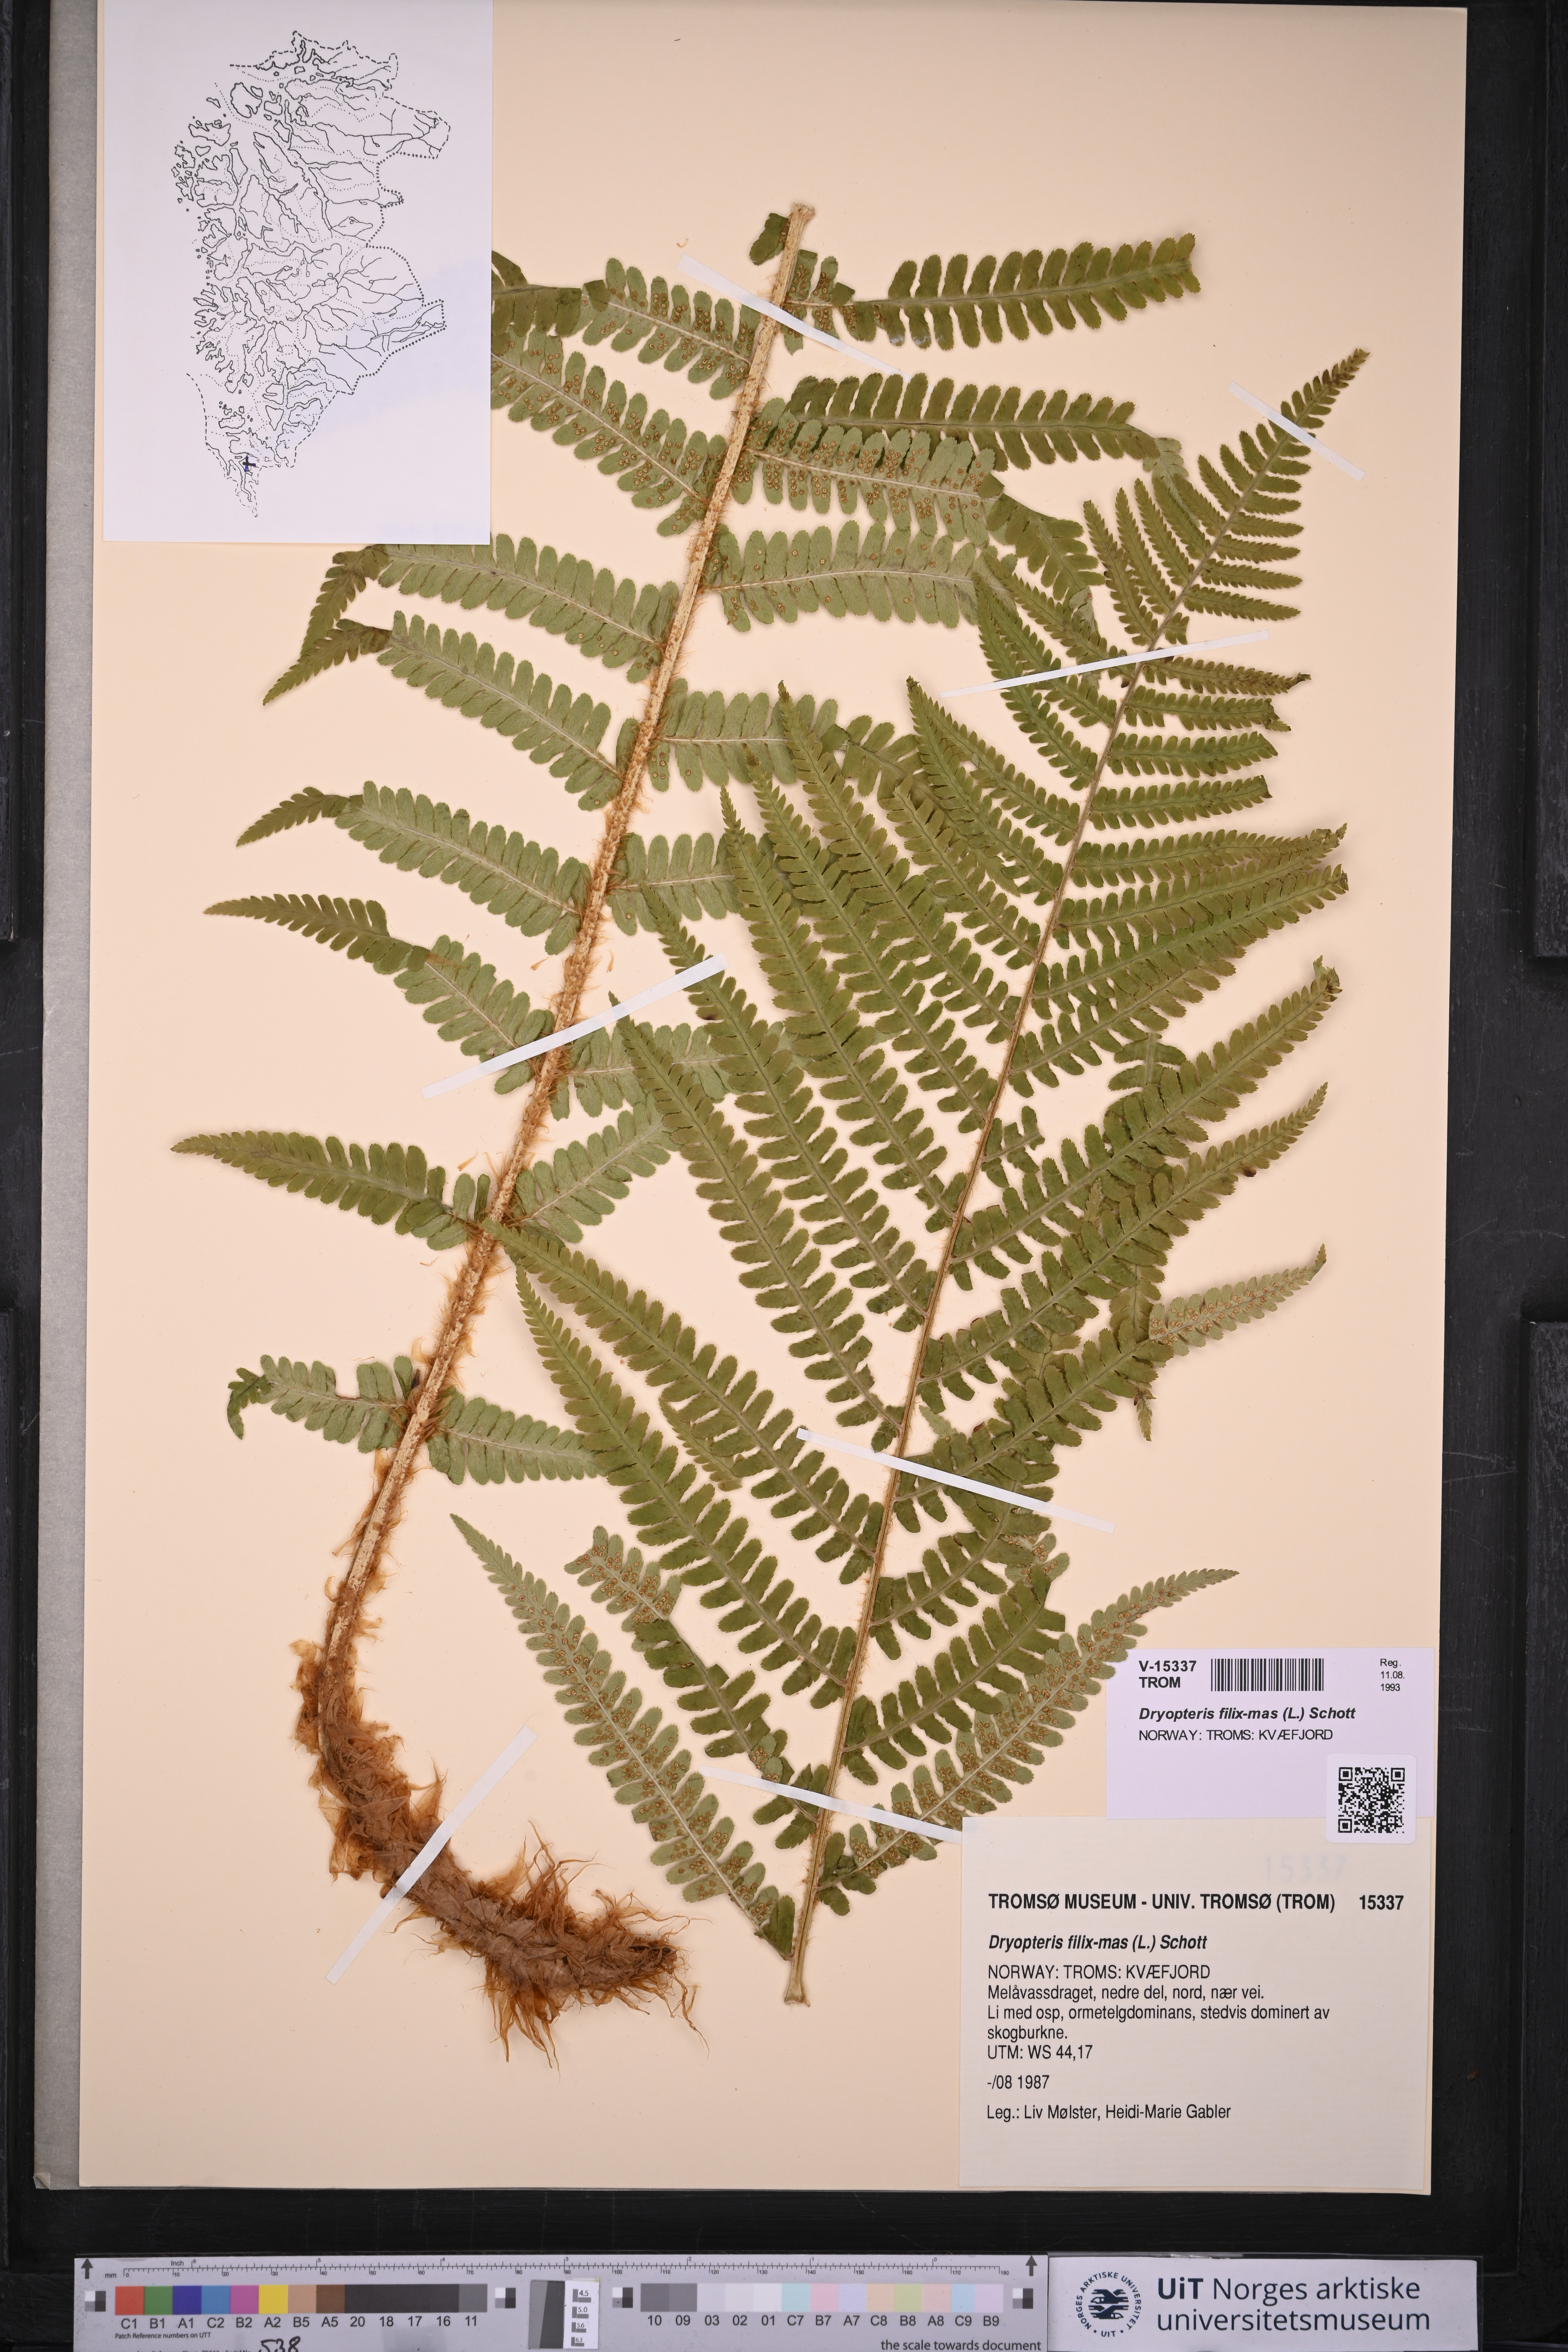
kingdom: Plantae
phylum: Tracheophyta
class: Polypodiopsida
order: Polypodiales
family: Dryopteridaceae
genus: Dryopteris
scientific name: Dryopteris filix-mas
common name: Male fern
